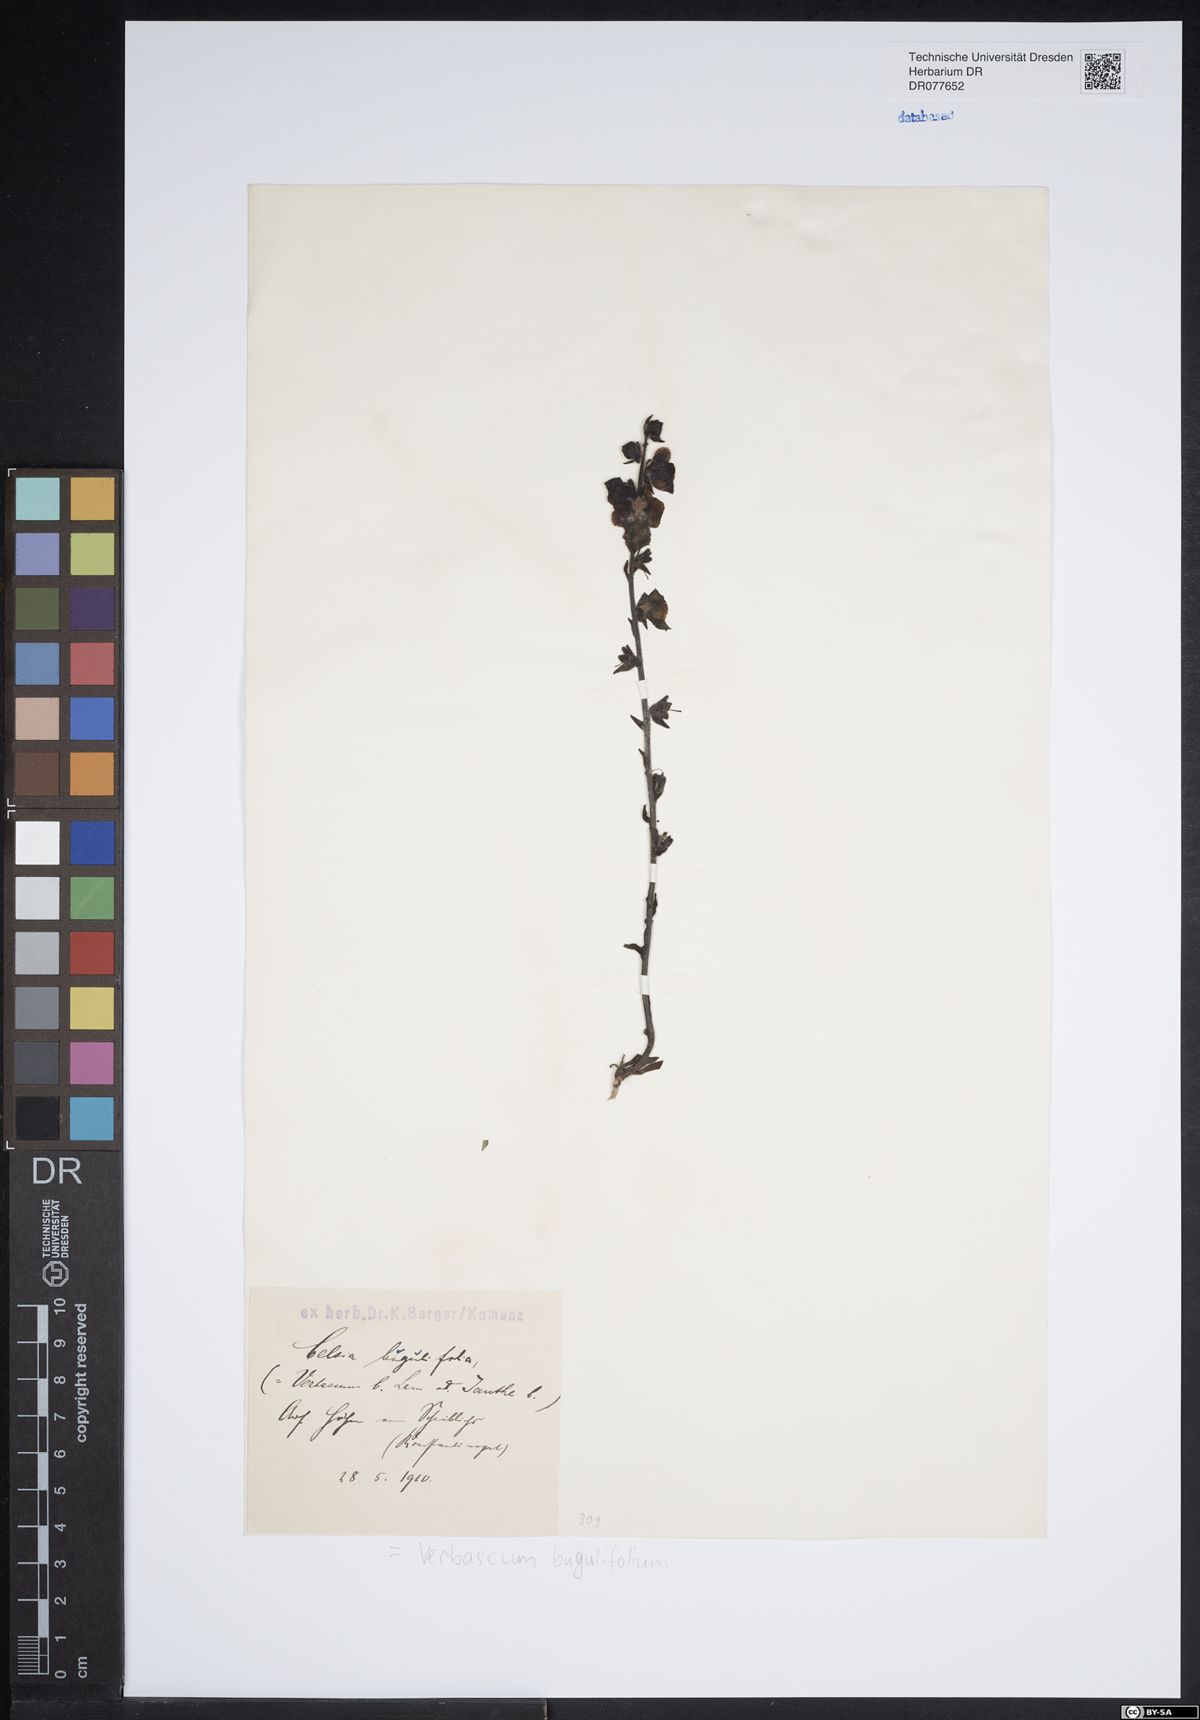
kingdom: Plantae
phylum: Tracheophyta
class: Magnoliopsida
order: Lamiales
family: Scrophulariaceae
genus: Verbascum
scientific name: Verbascum bugulifolium
